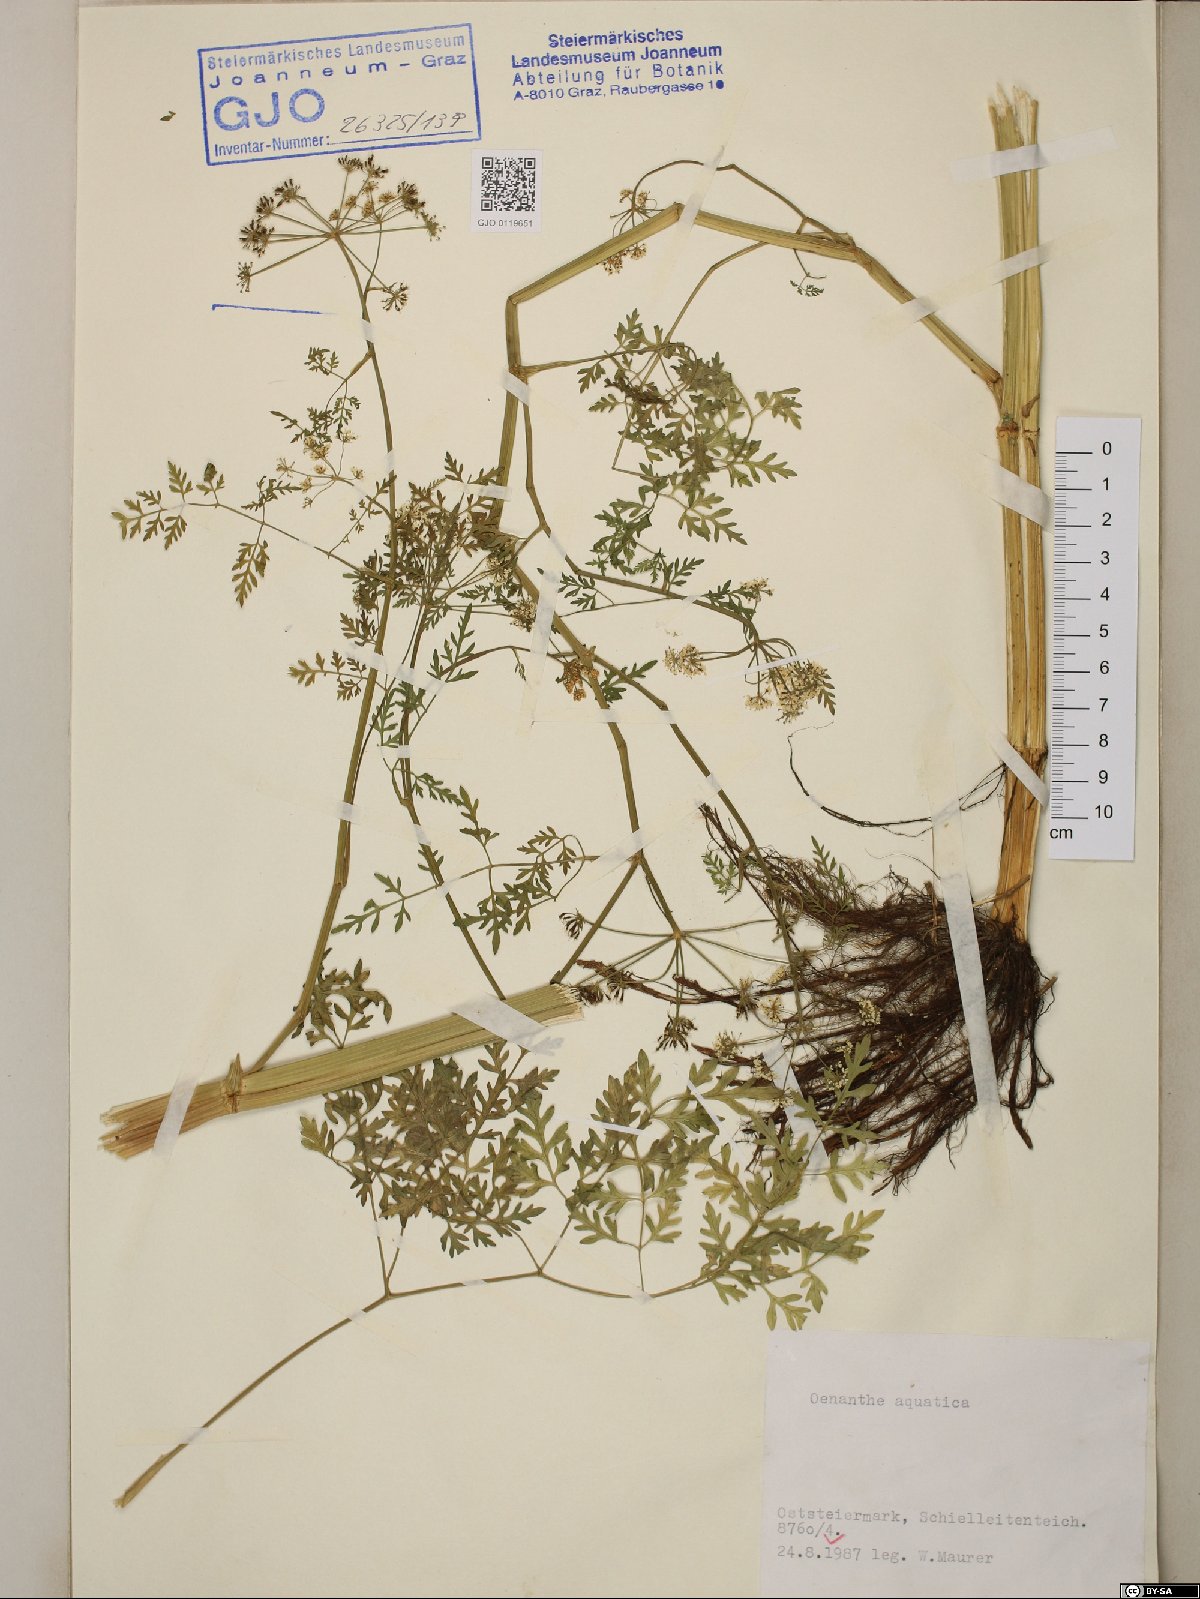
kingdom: Plantae
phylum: Tracheophyta
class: Magnoliopsida
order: Apiales
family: Apiaceae
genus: Oenanthe
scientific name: Oenanthe aquatica
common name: Fine-leaved water-dropwort
